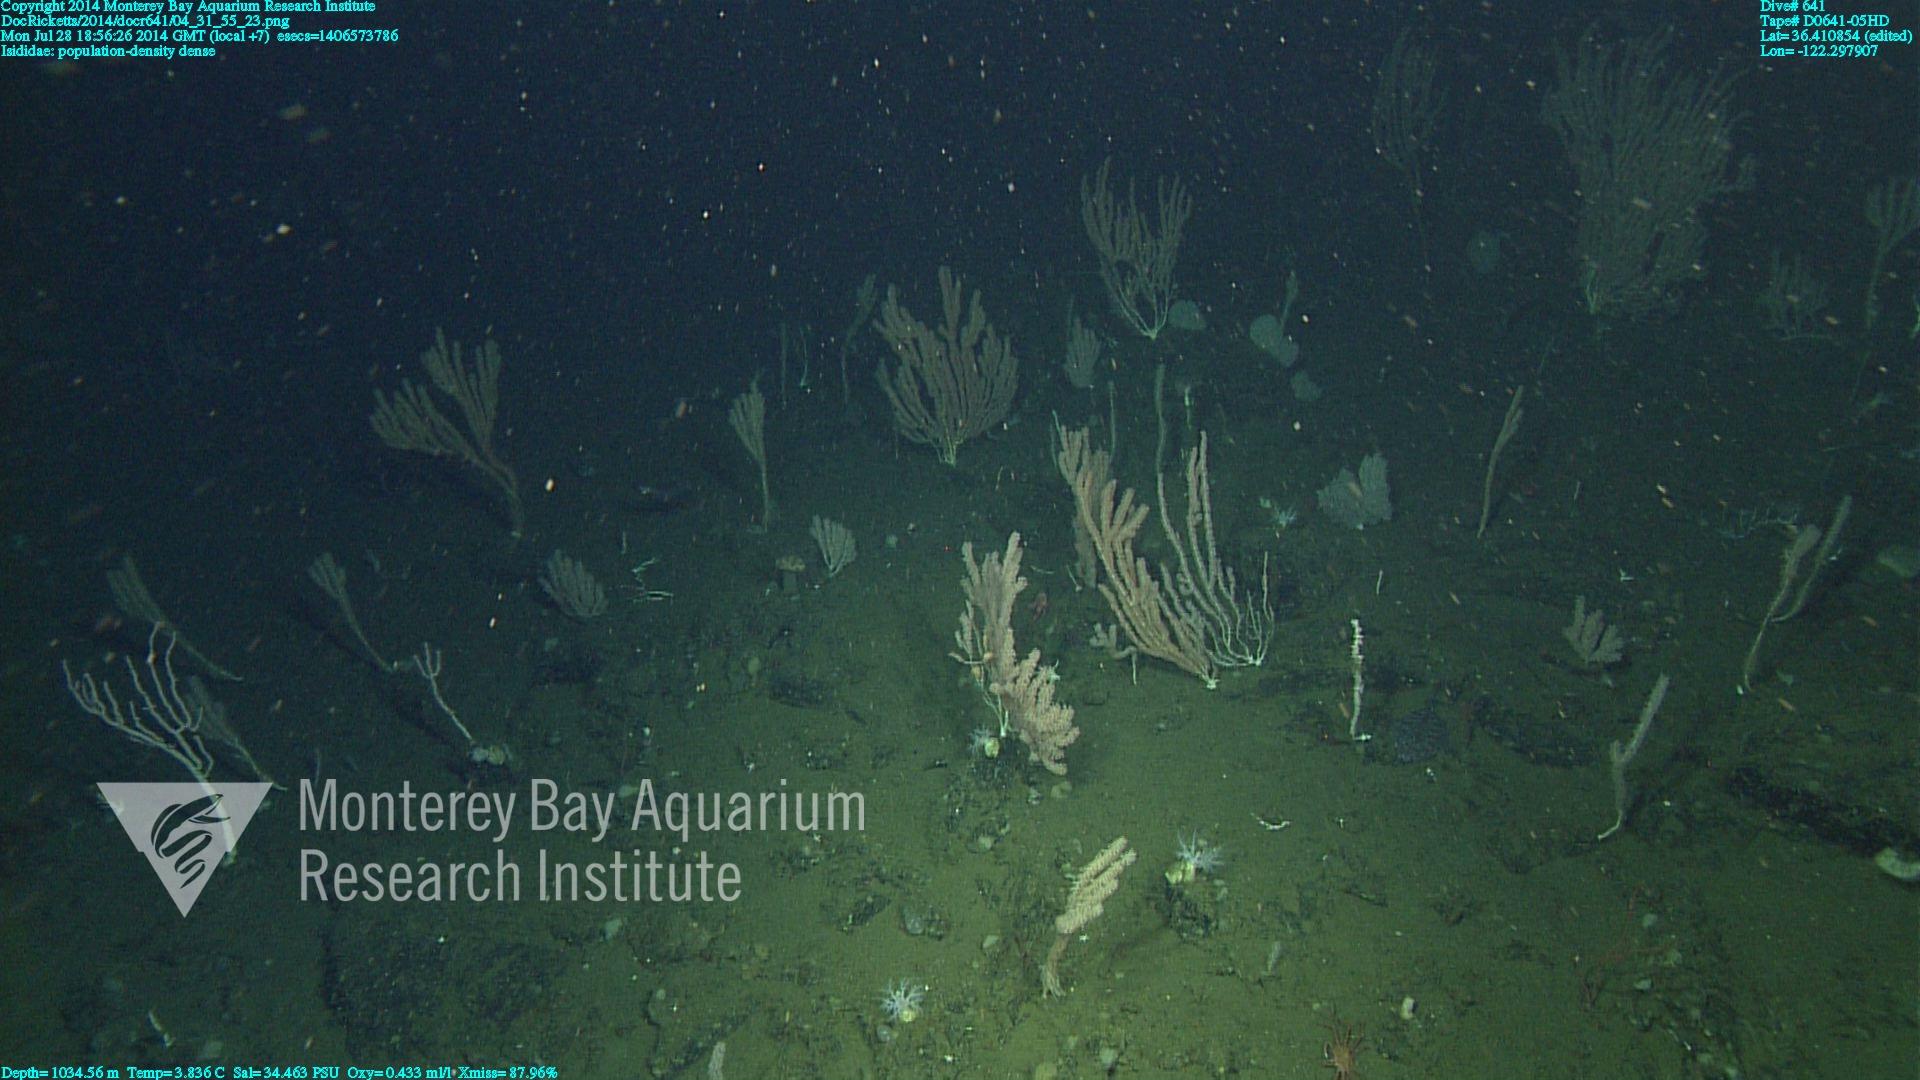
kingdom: Animalia
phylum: Cnidaria
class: Anthozoa
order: Scleralcyonacea
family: Keratoisididae
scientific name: Keratoisididae
